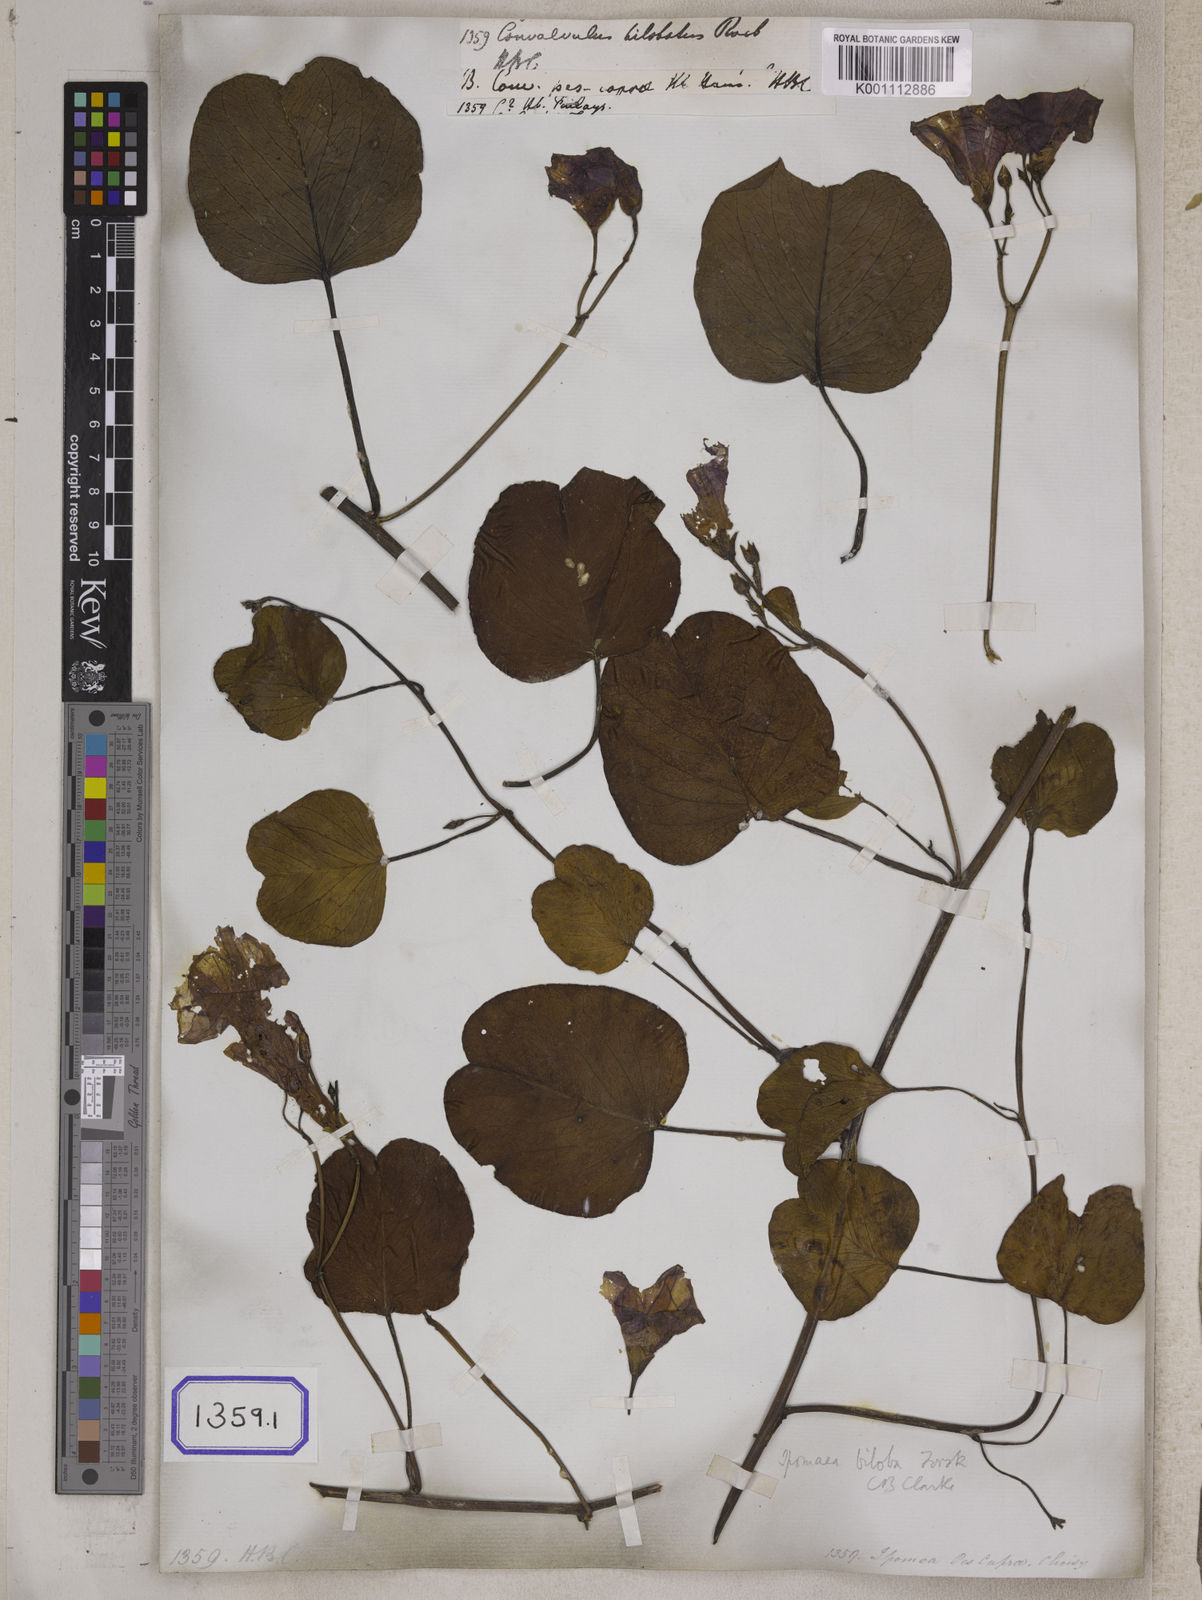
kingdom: Plantae
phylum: Tracheophyta
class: Magnoliopsida
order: Solanales
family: Convolvulaceae
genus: Ipomoea
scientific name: Ipomoea pes-caprae
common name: Beach morning glory
